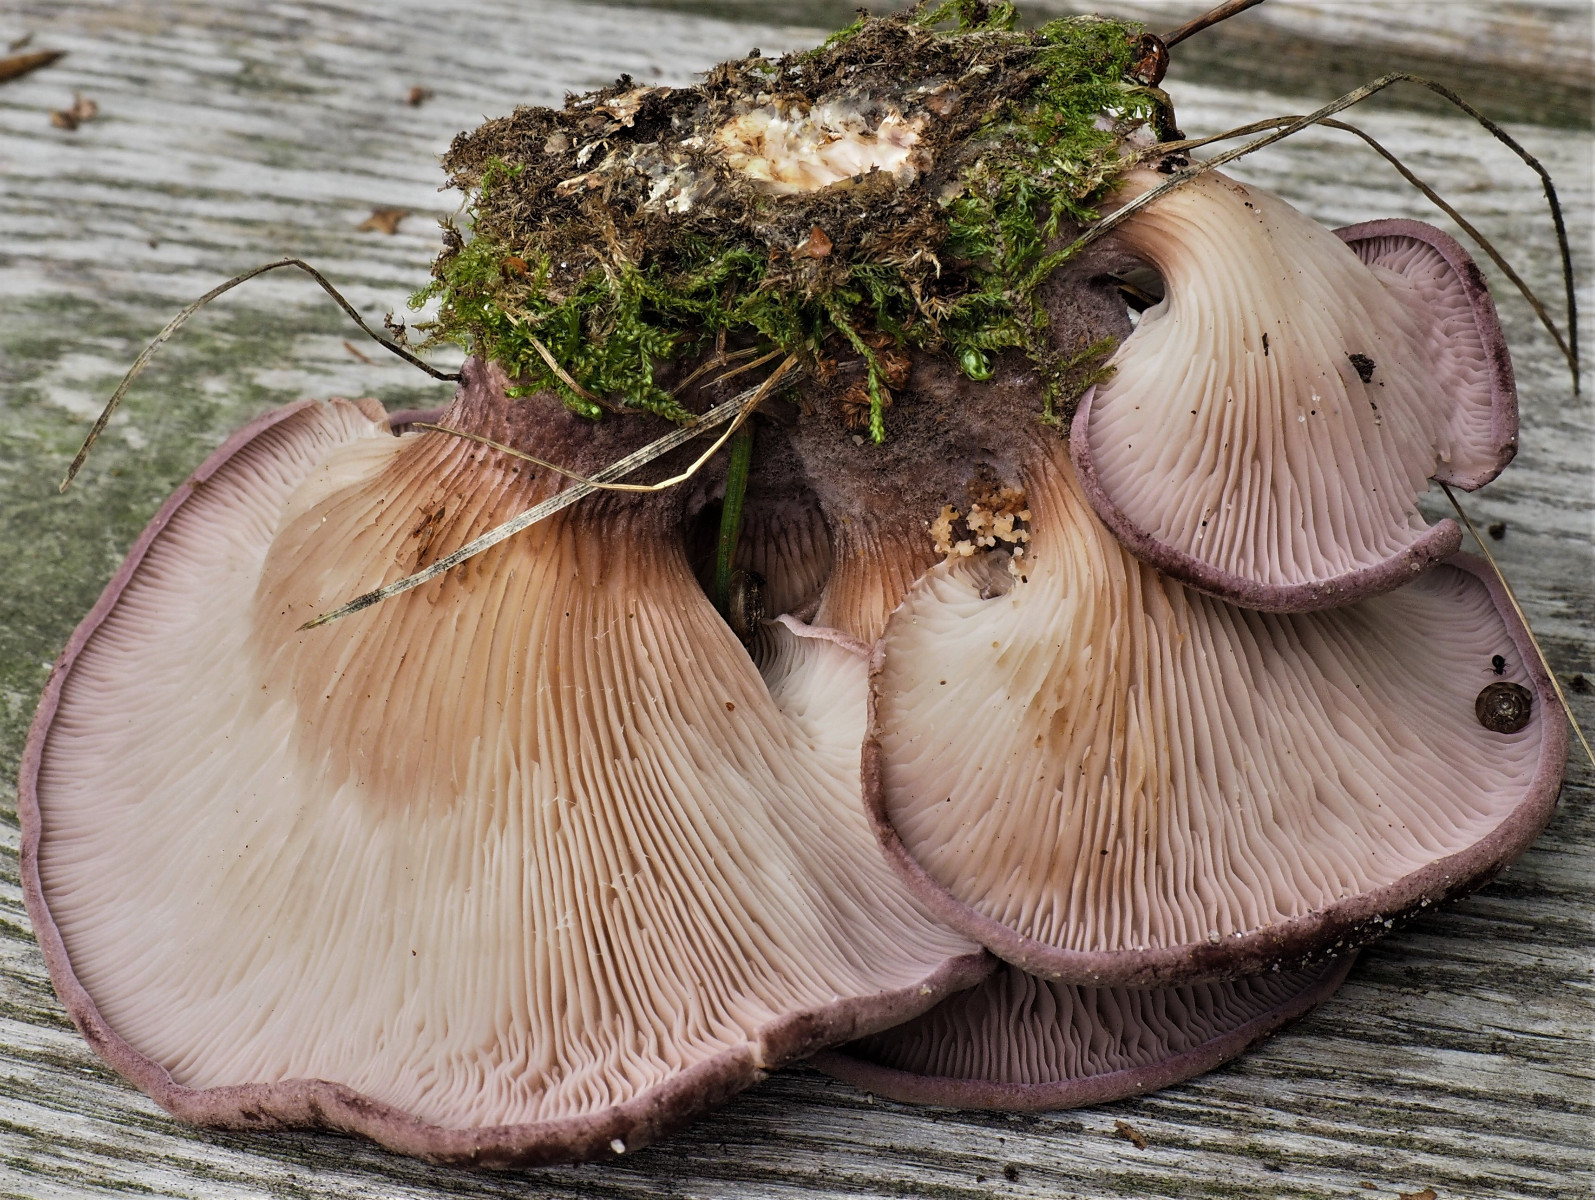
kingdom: Fungi
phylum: Basidiomycota
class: Agaricomycetes
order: Polyporales
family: Panaceae
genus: Panus
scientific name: Panus conchatus
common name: filtstokket læderhat
